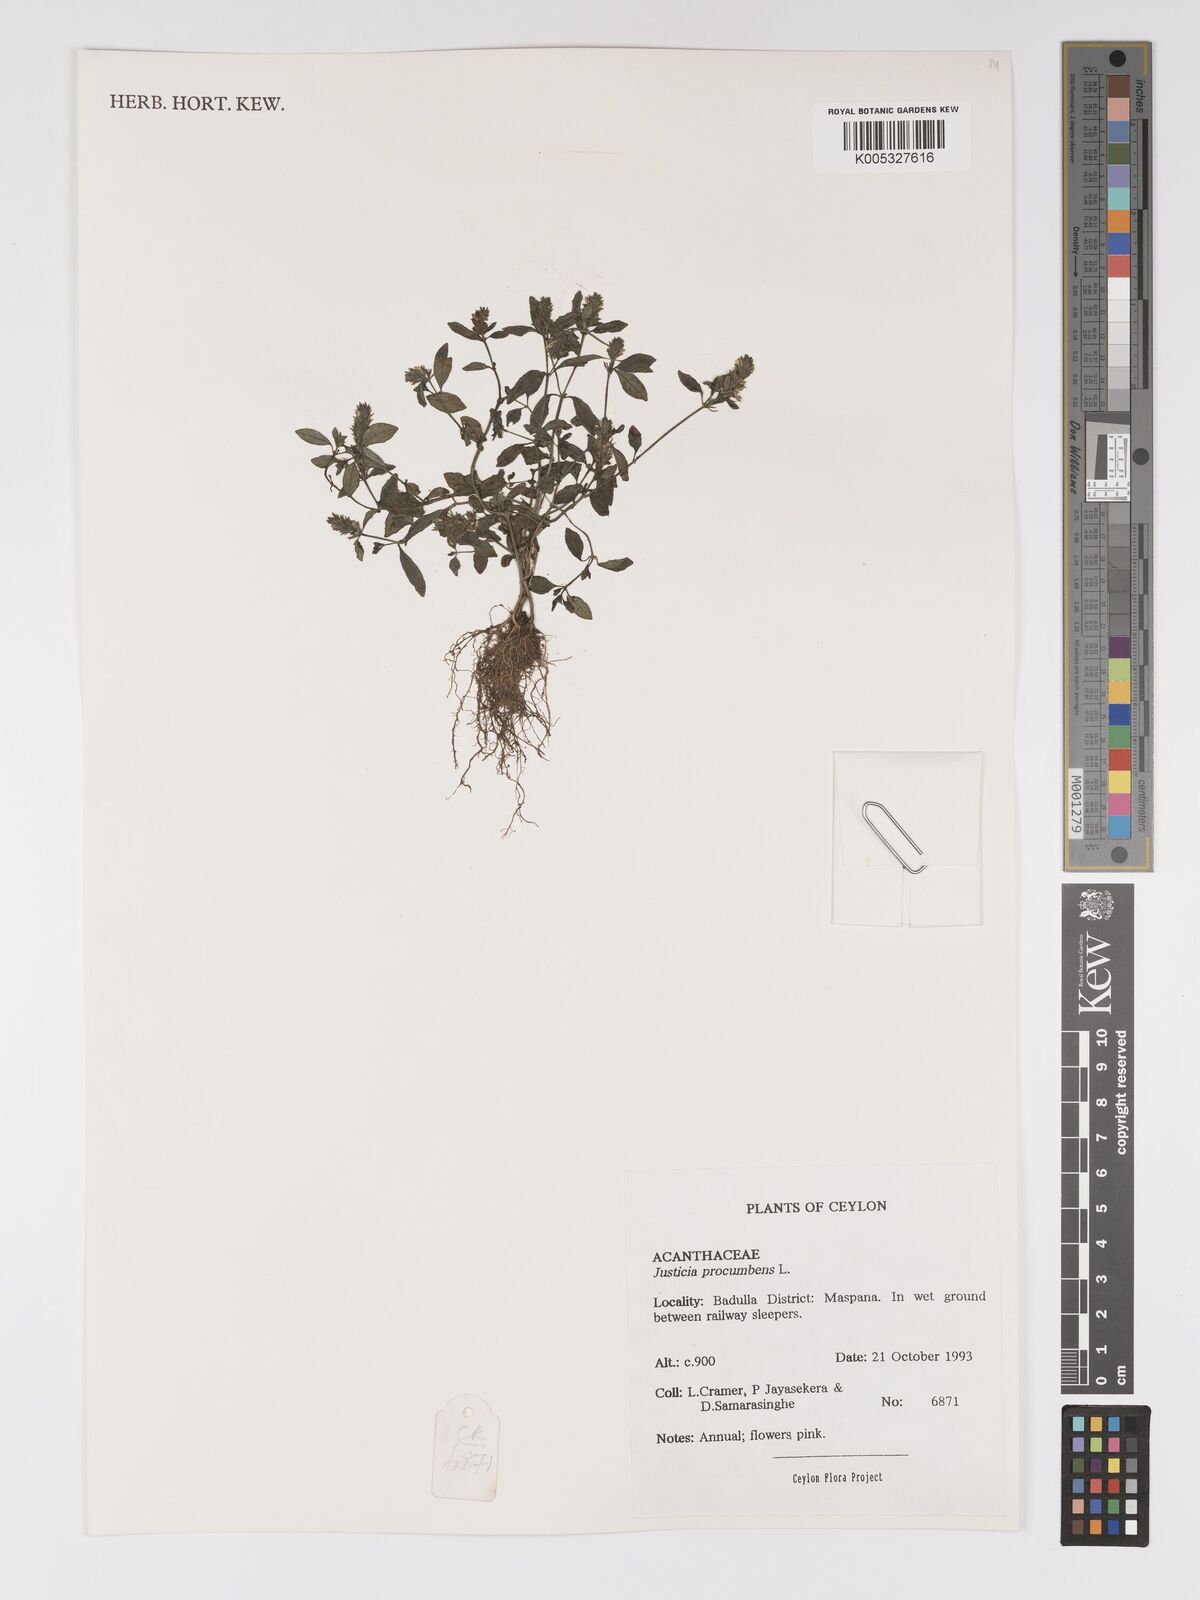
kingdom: Plantae
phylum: Tracheophyta
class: Magnoliopsida
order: Lamiales
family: Acanthaceae
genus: Rostellularia
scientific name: Rostellularia procumbens
